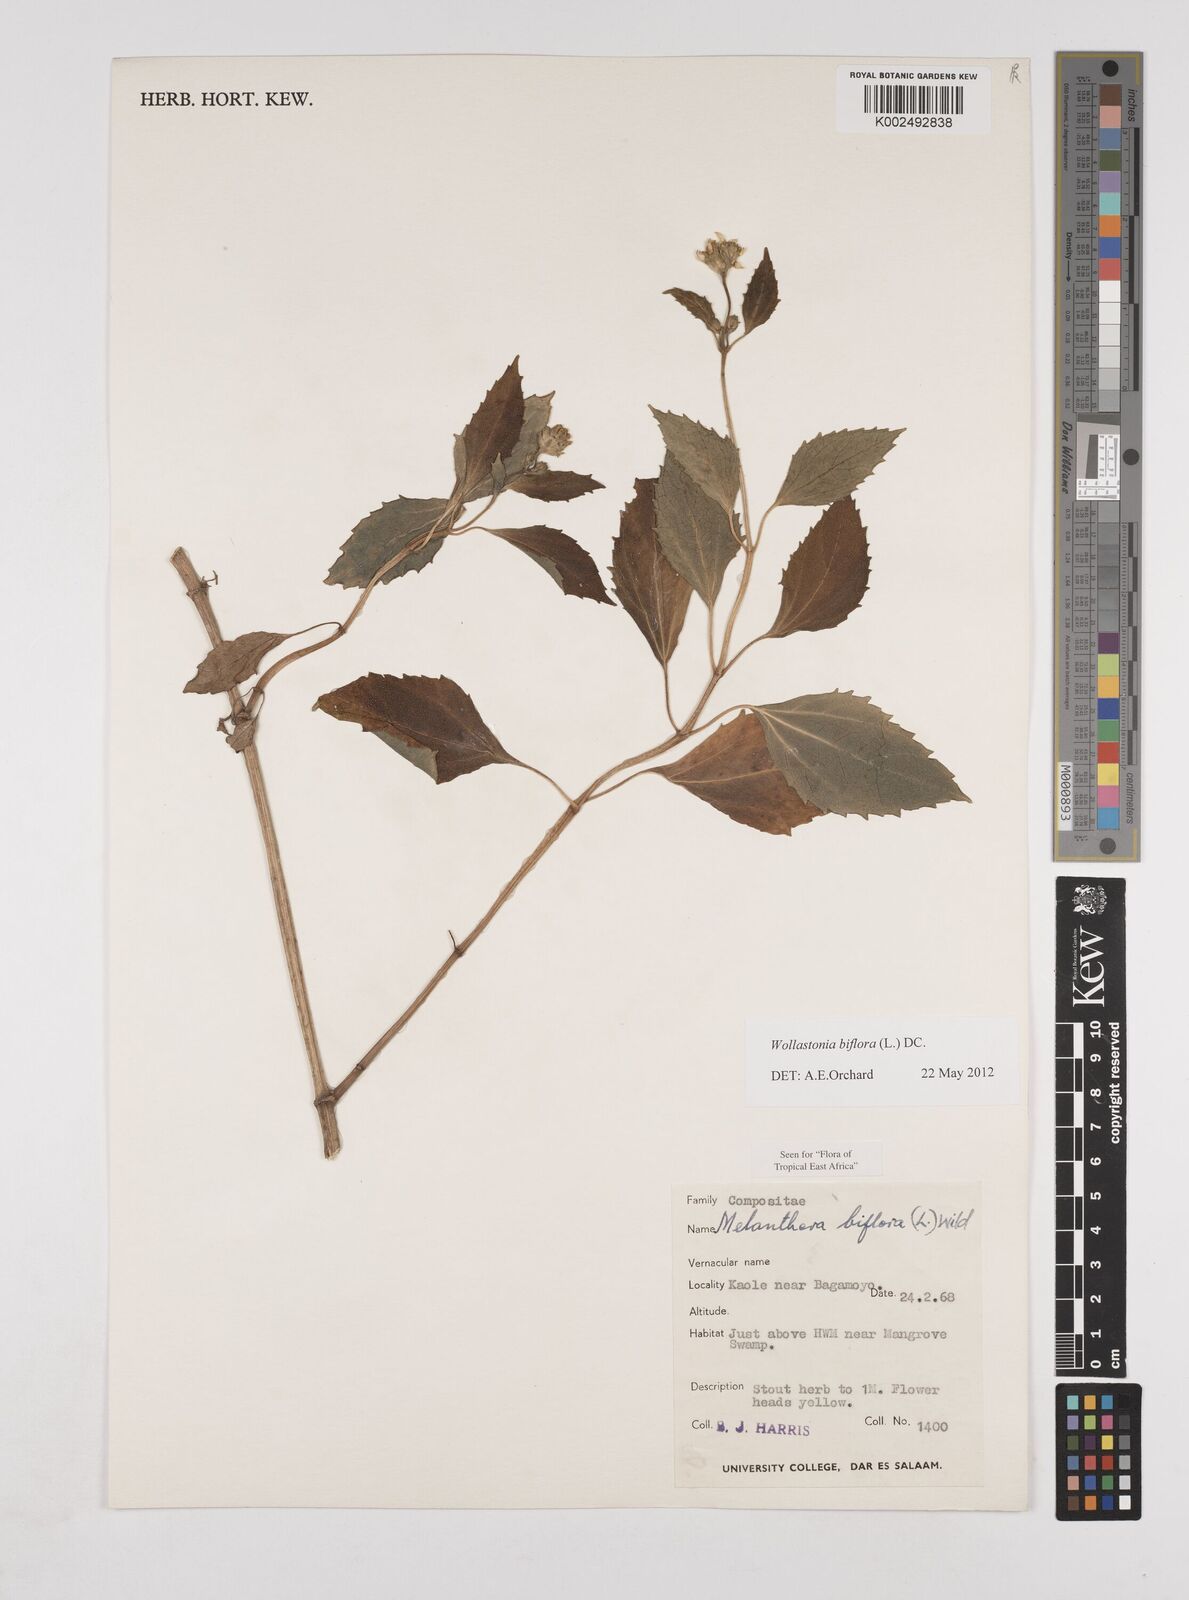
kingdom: Plantae
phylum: Tracheophyta
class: Magnoliopsida
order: Asterales
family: Asteraceae
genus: Wollastonia
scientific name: Wollastonia biflora
